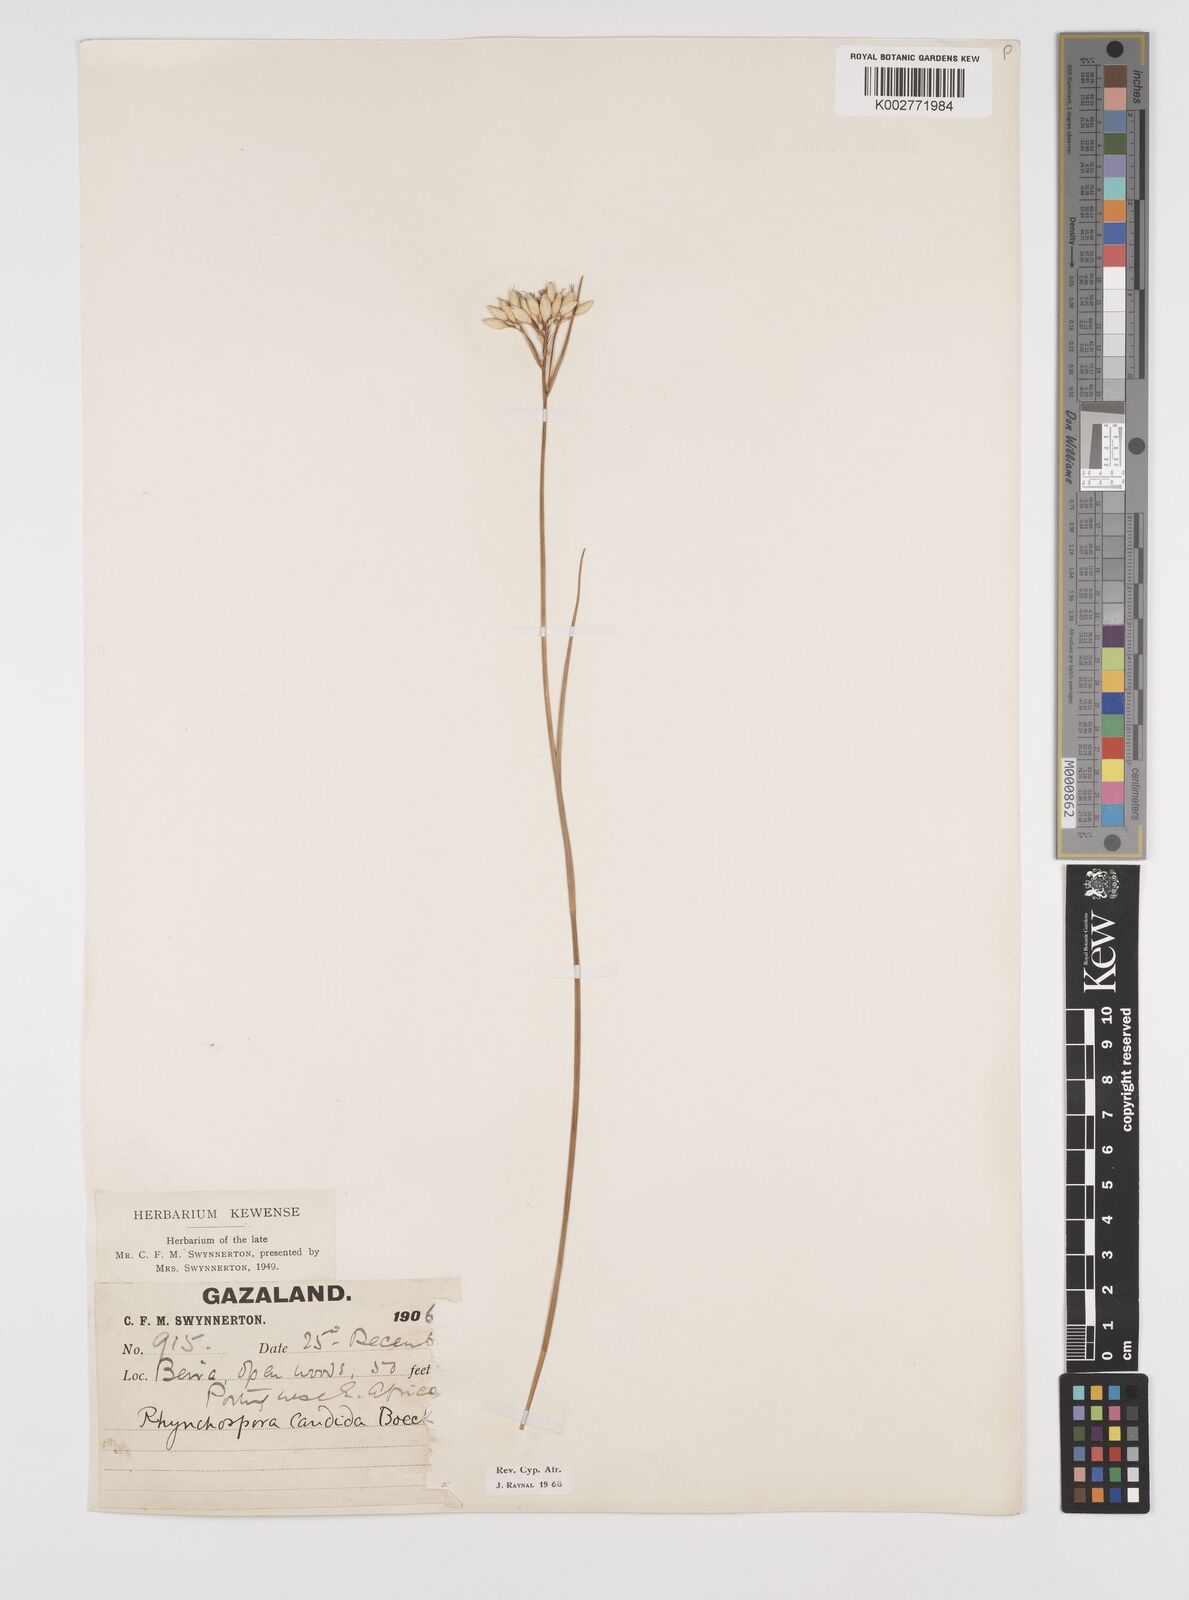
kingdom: Plantae
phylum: Tracheophyta
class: Liliopsida
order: Poales
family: Cyperaceae
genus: Rhynchospora
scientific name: Rhynchospora candida
